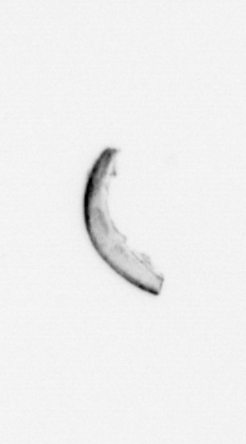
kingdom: Chromista
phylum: Ochrophyta
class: Bacillariophyceae
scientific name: Bacillariophyceae
